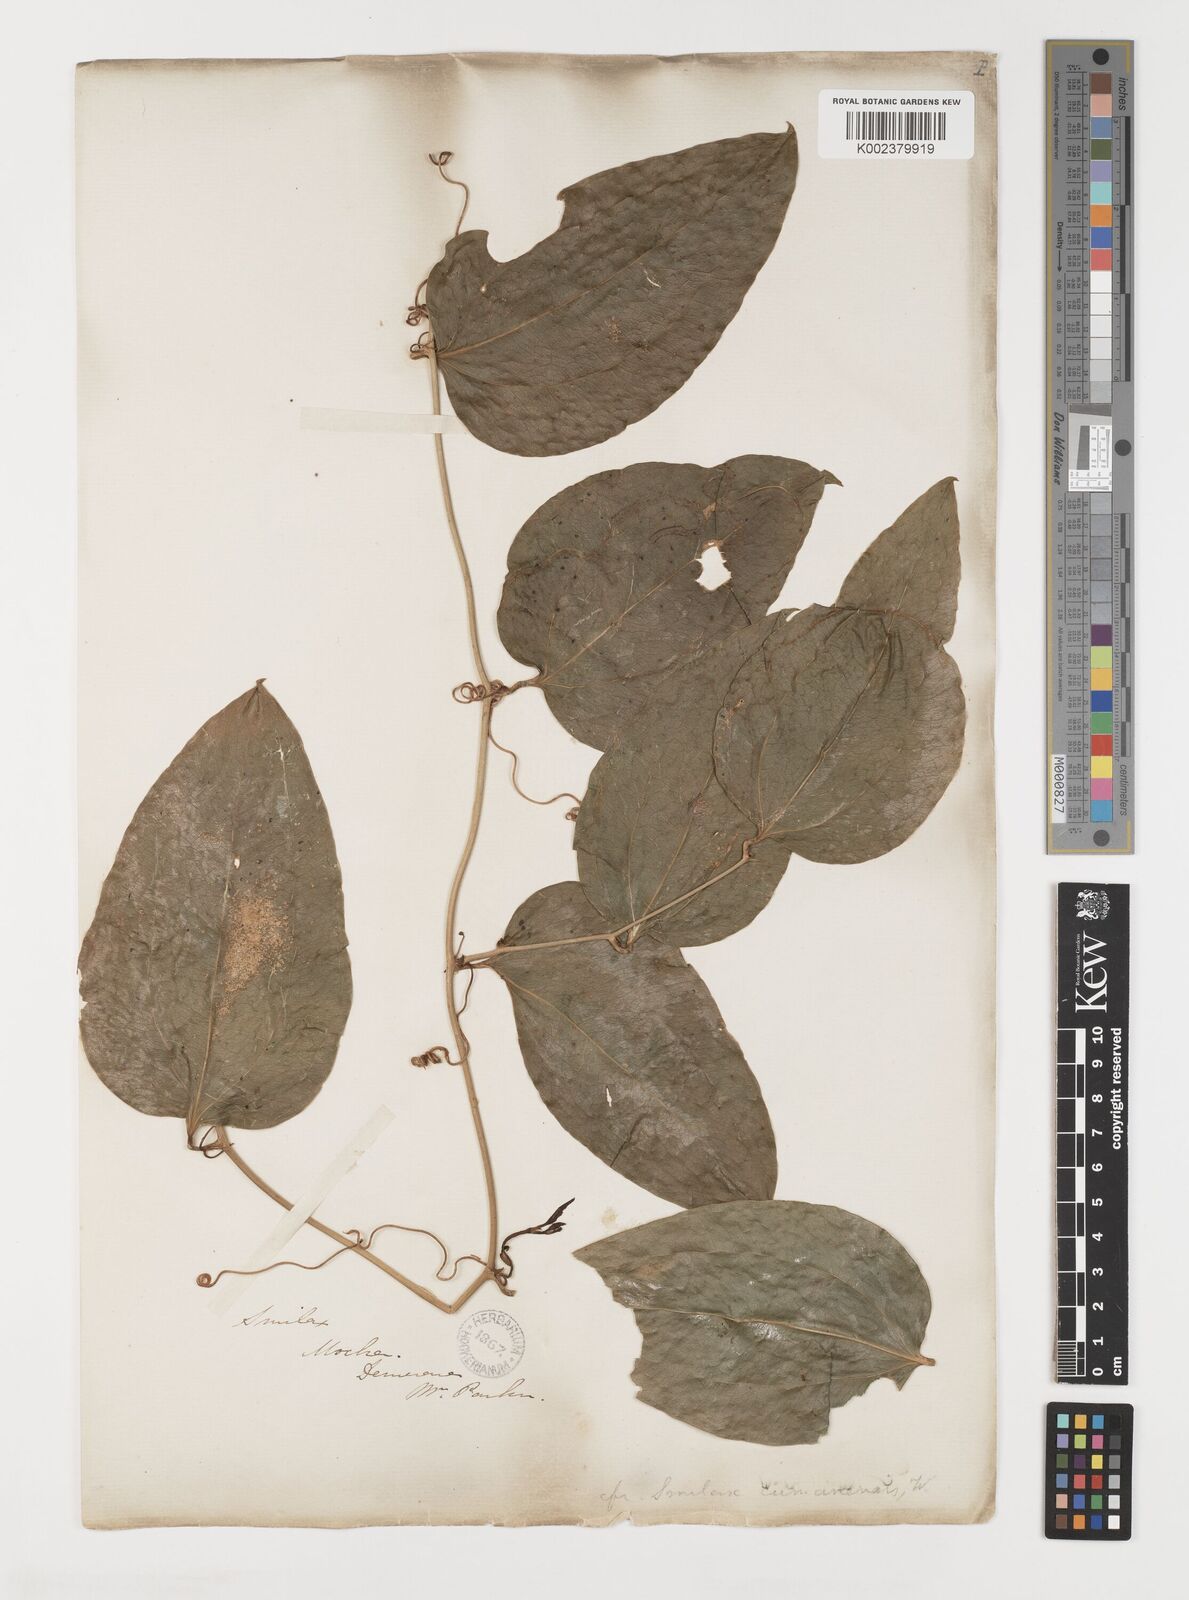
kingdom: Plantae
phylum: Tracheophyta
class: Liliopsida
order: Liliales
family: Smilacaceae
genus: Smilax
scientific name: Smilax oblongata
